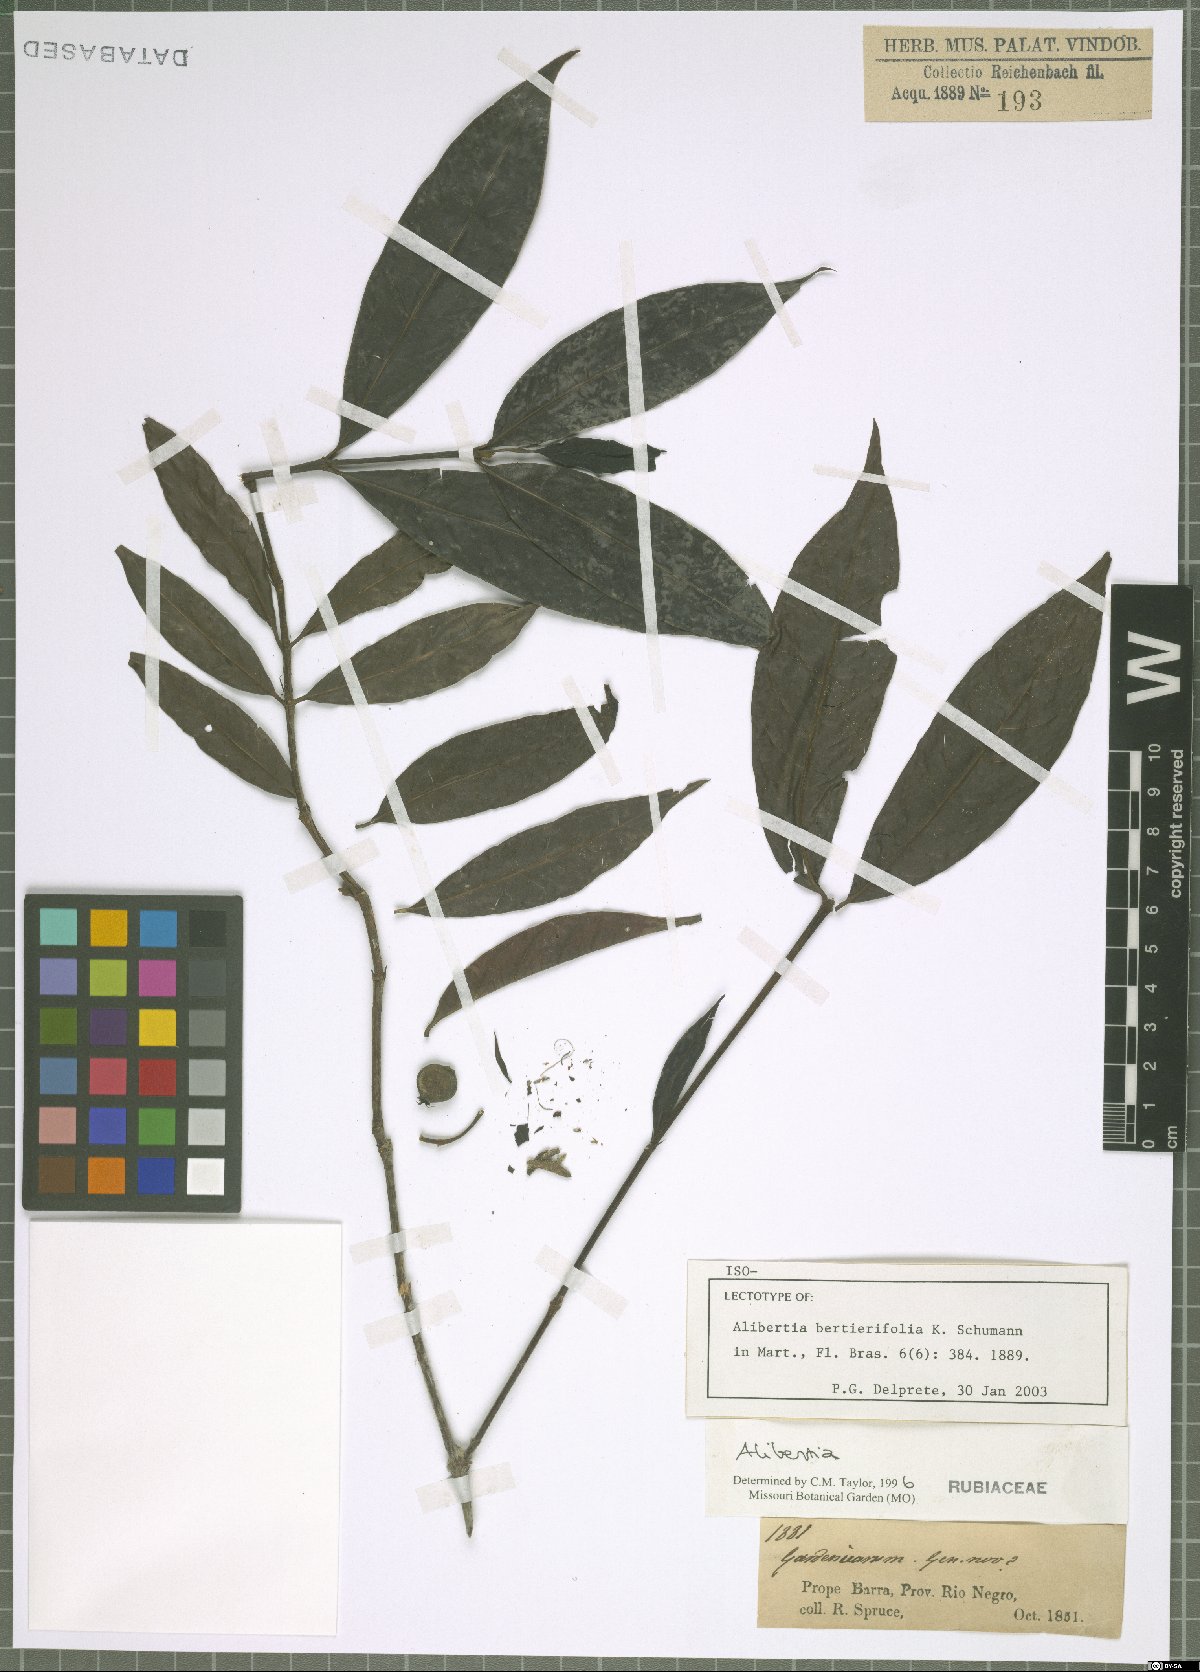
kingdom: Plantae
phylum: Tracheophyta
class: Magnoliopsida
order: Gentianales
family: Rubiaceae
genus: Alibertia
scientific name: Alibertia bertierifolia
